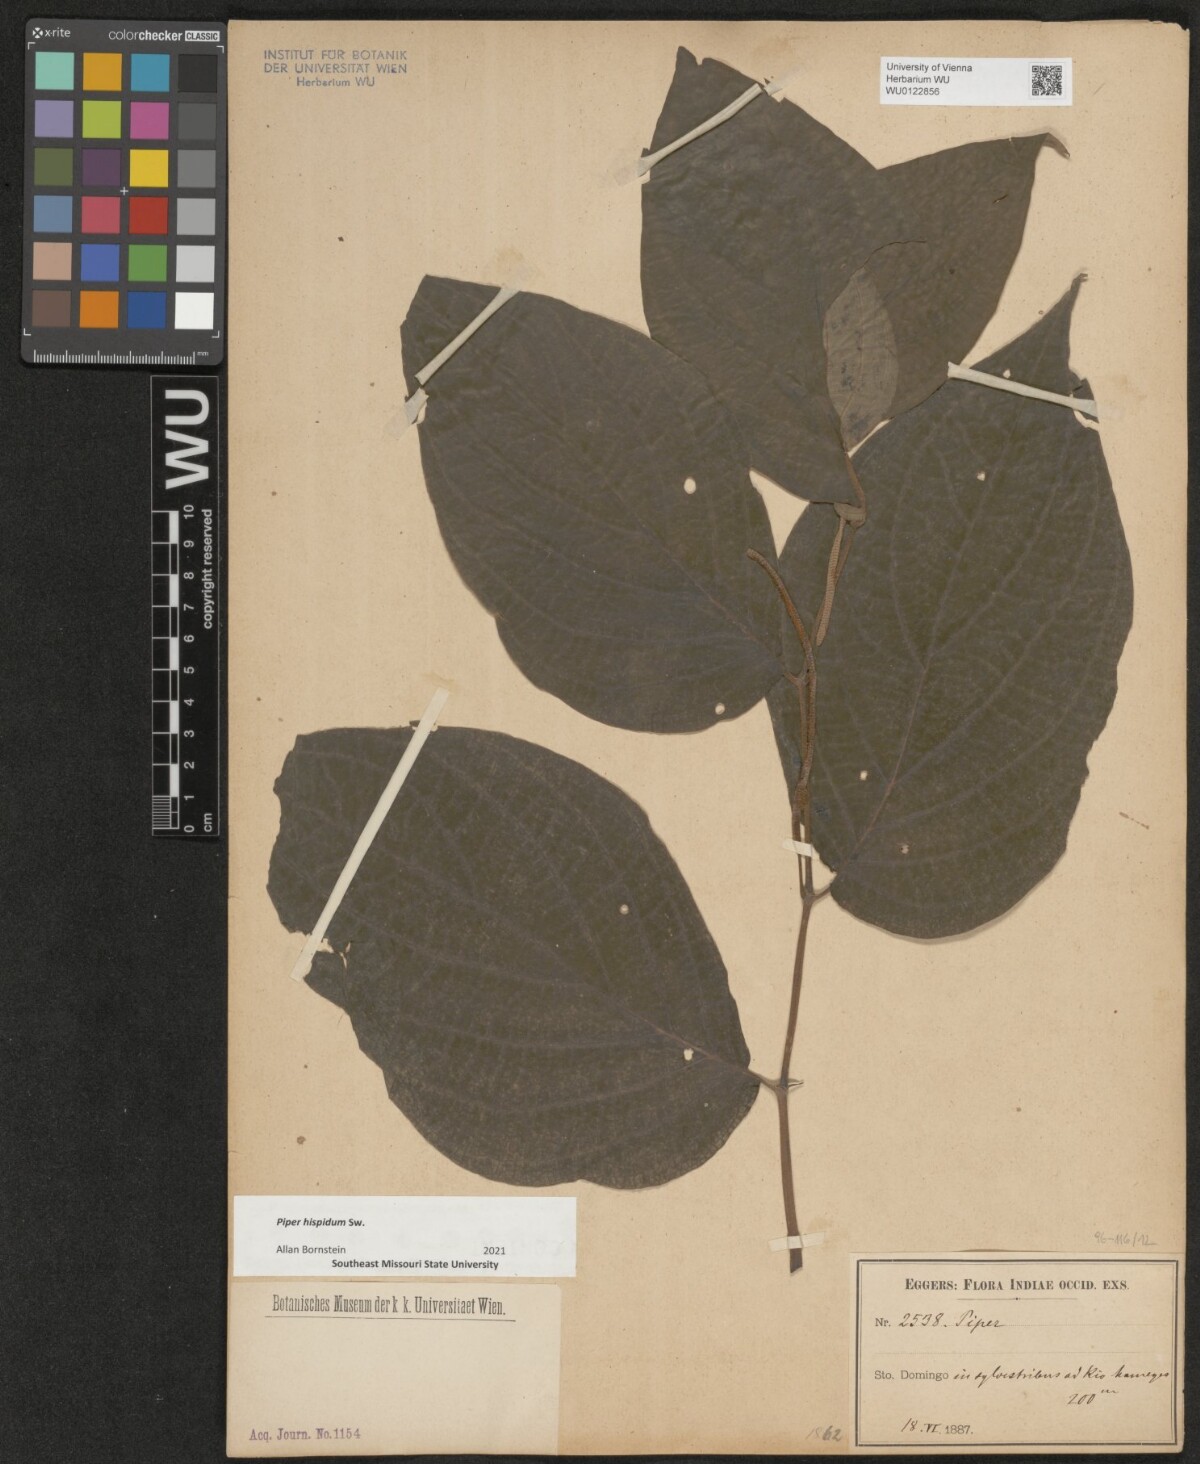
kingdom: Plantae
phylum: Tracheophyta
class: Magnoliopsida
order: Piperales
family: Piperaceae
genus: Piper
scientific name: Piper hispidum
